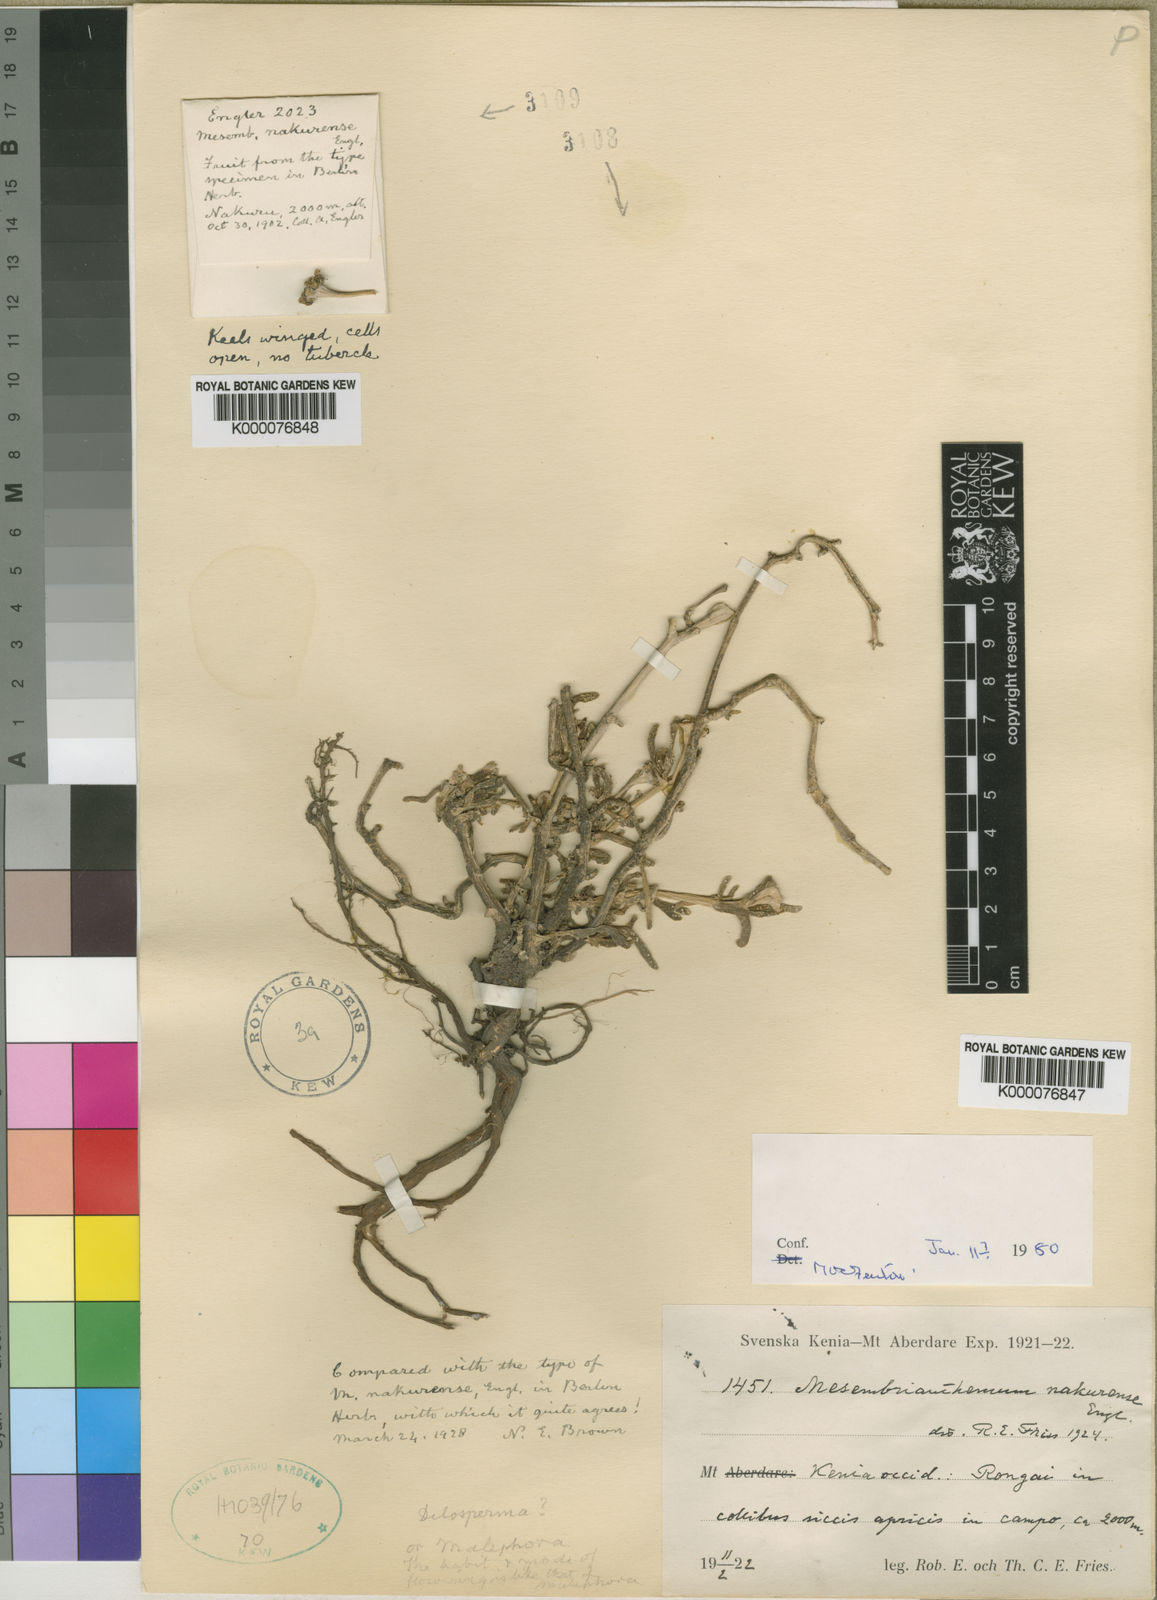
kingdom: Plantae
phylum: Tracheophyta
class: Magnoliopsida
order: Caryophyllales
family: Aizoaceae
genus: Delosperma
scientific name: Delosperma nakurense
